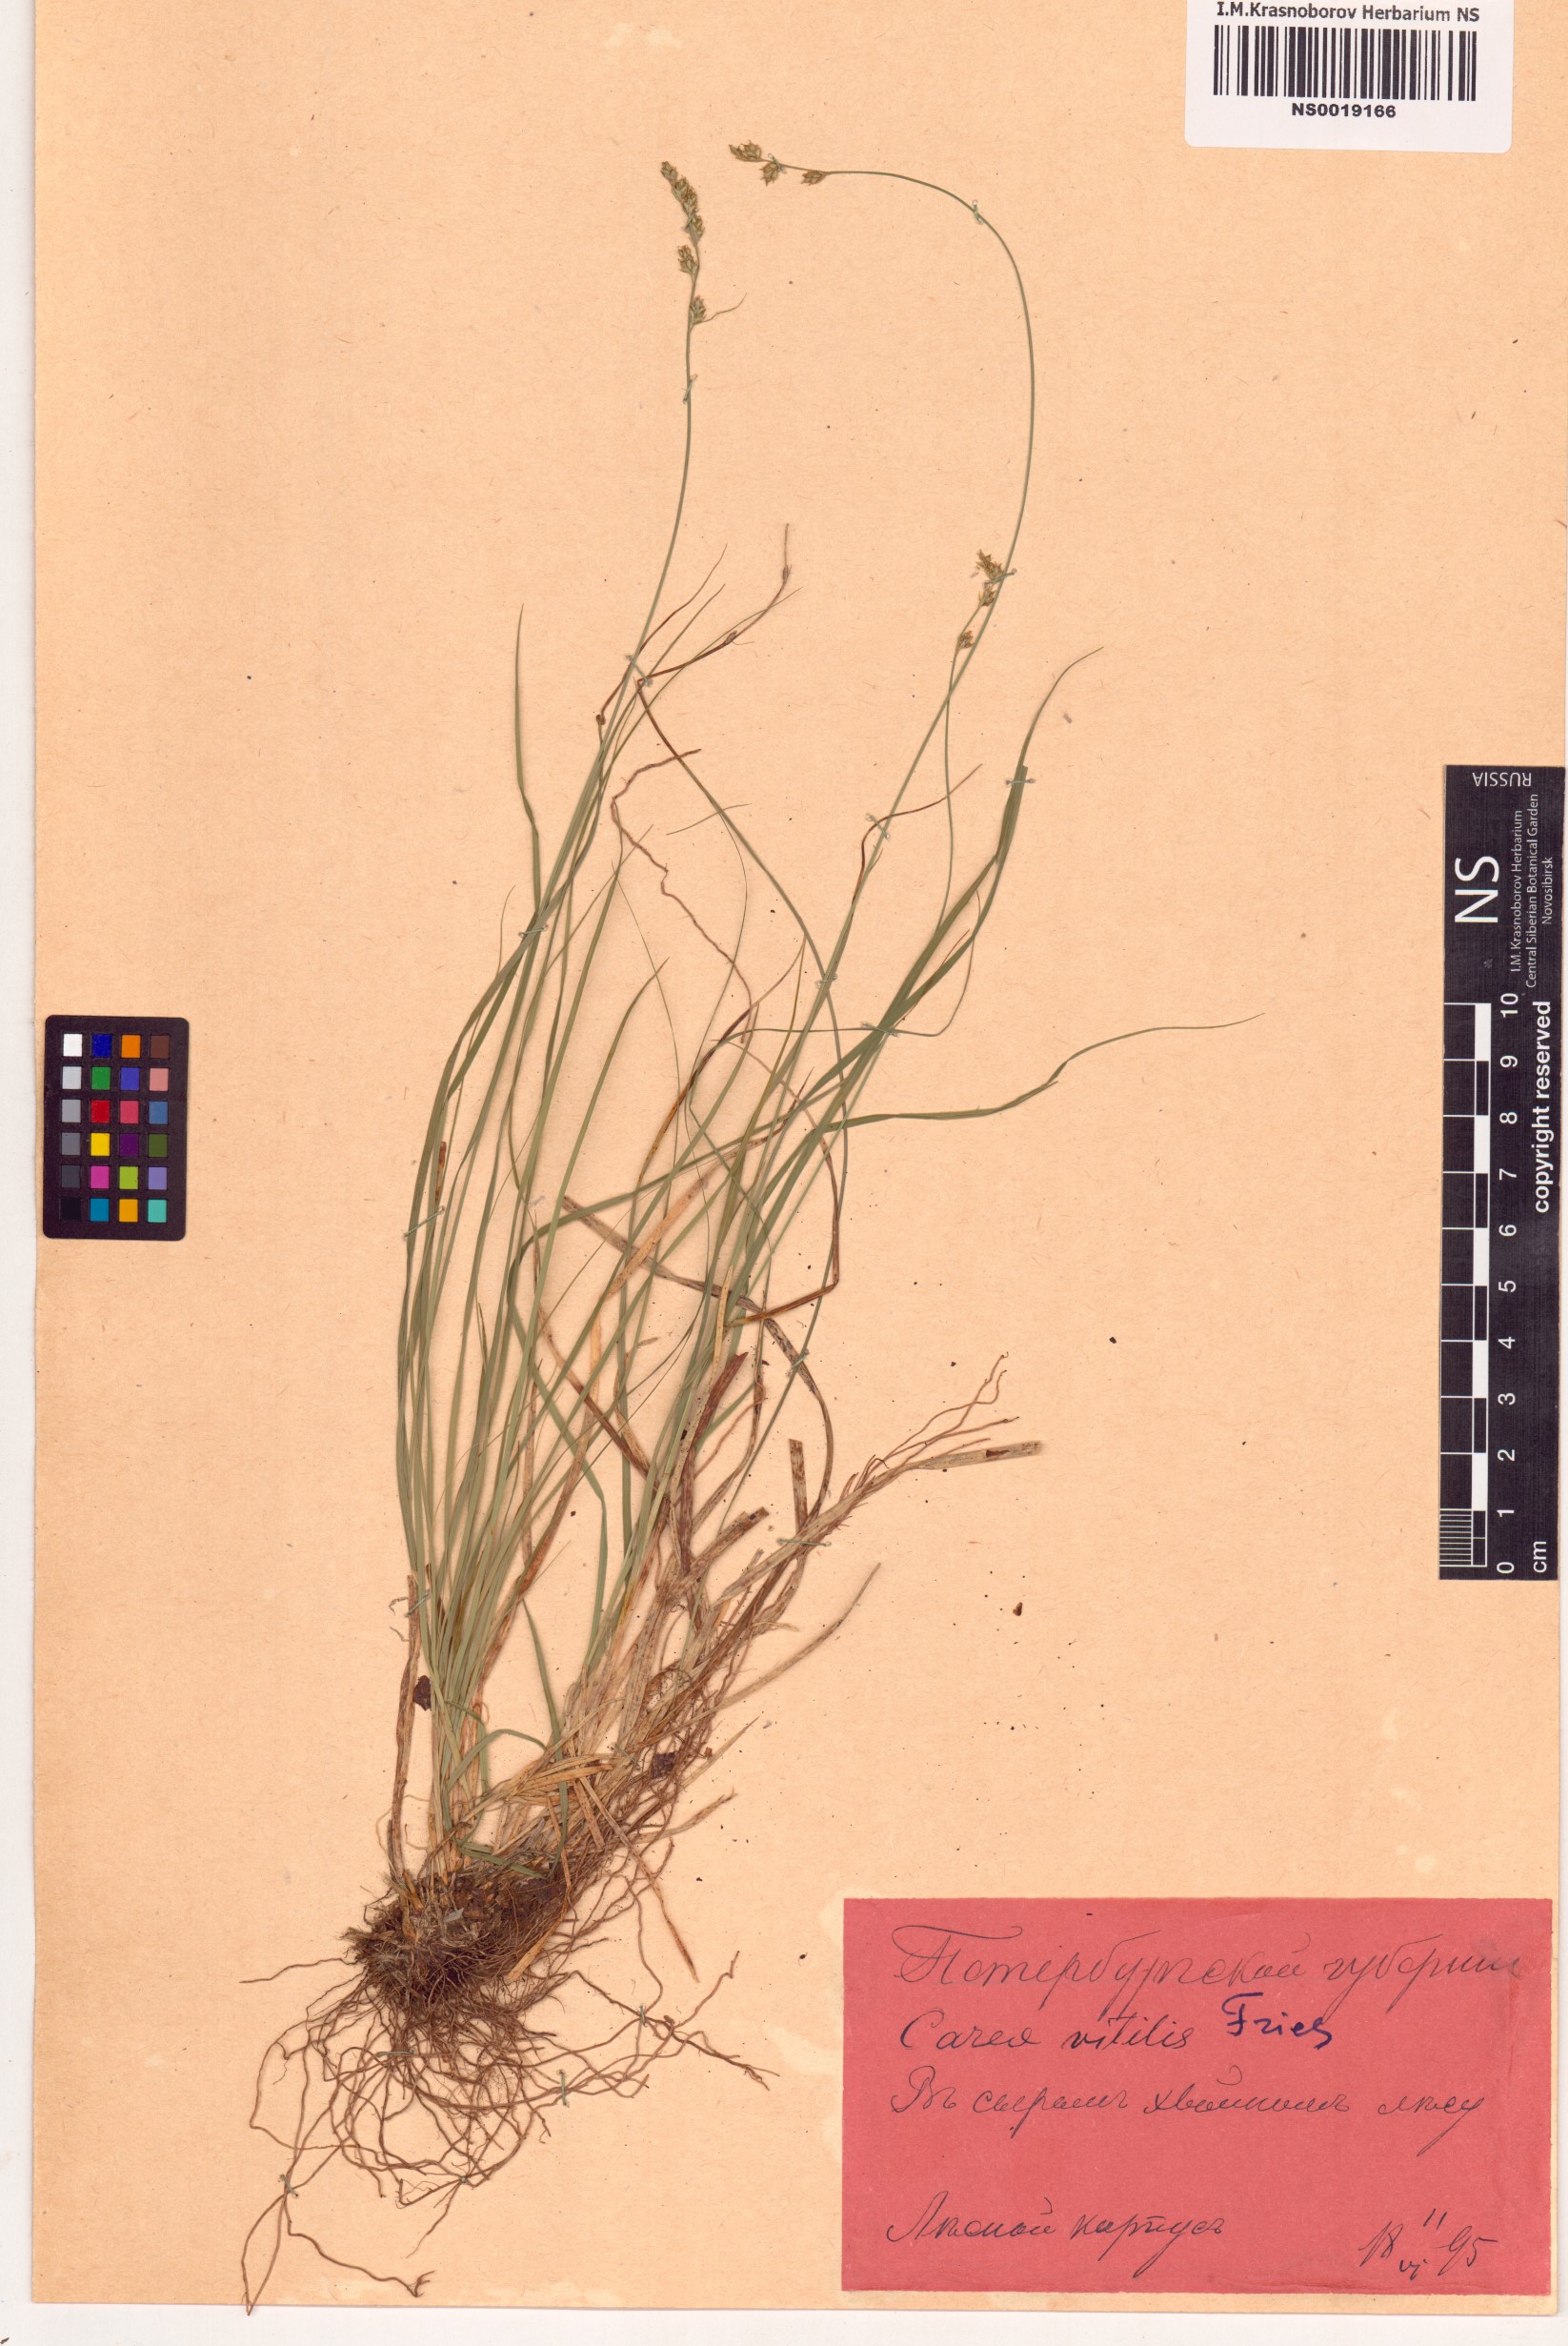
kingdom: Plantae
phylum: Tracheophyta
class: Liliopsida
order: Poales
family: Cyperaceae
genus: Carex
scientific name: Carex brunnescens
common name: Brown sedge
